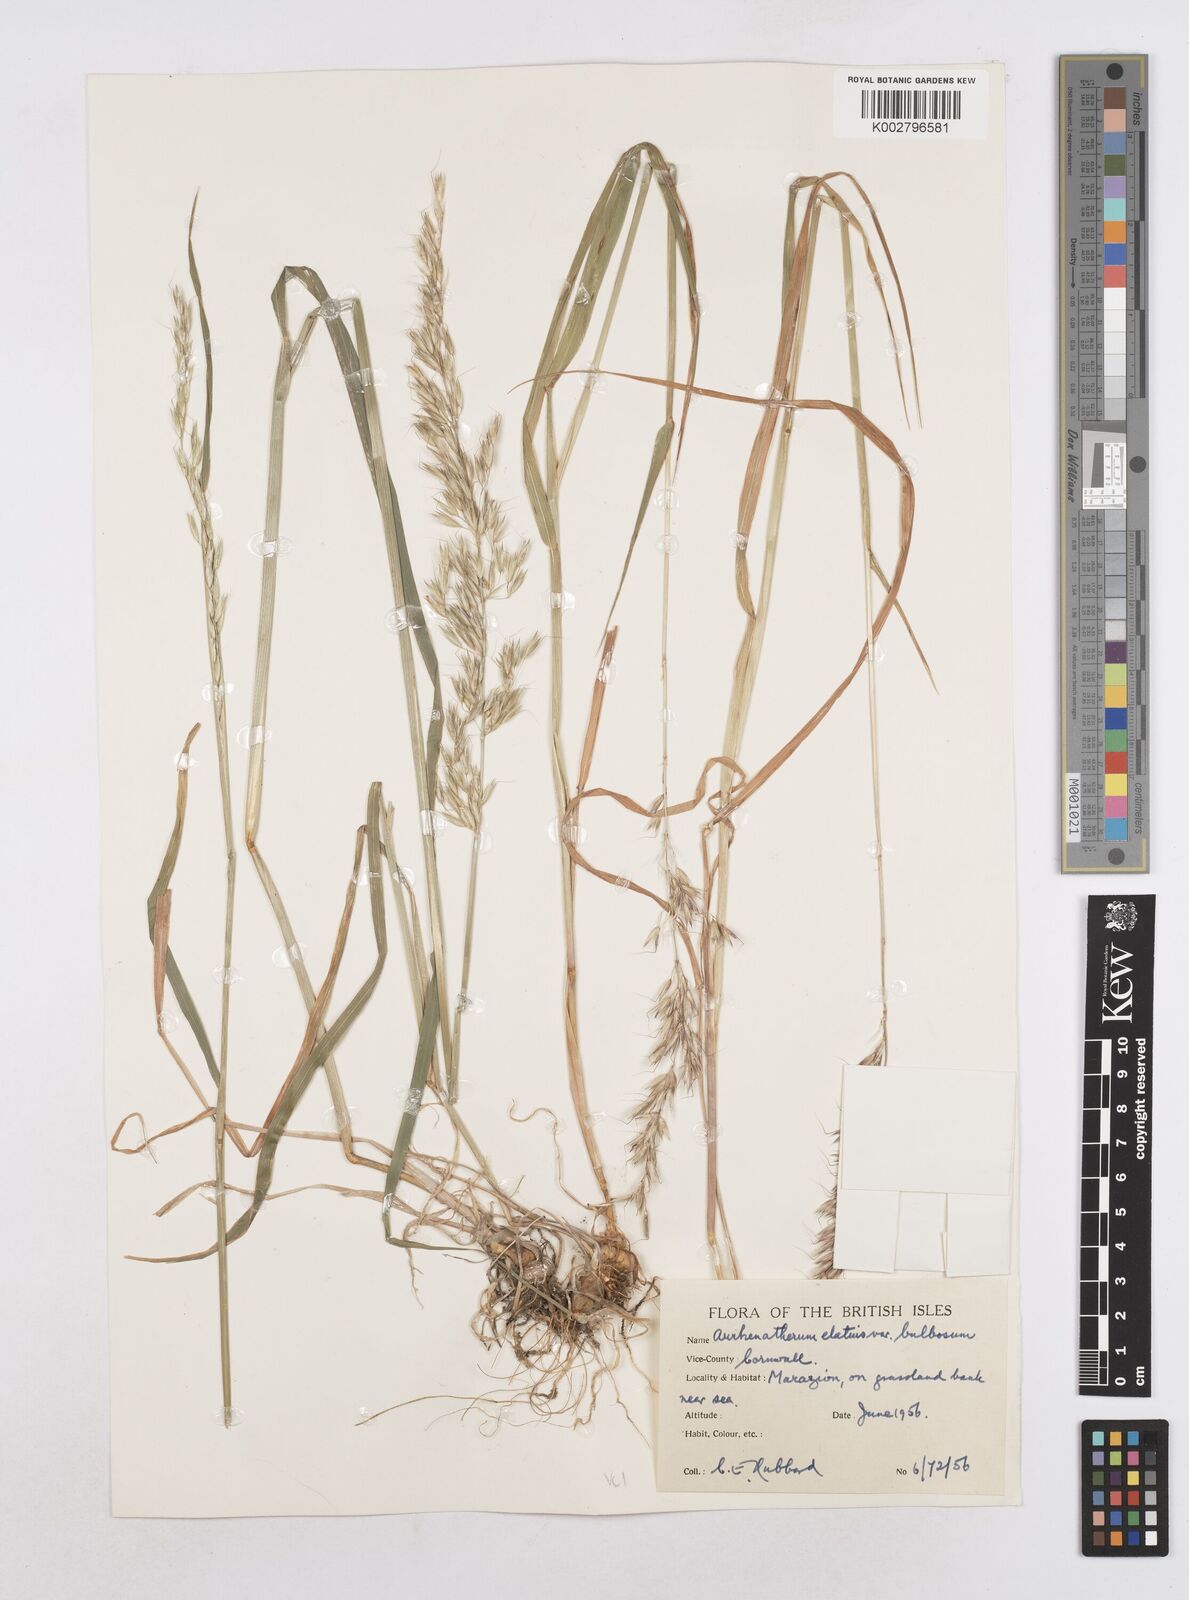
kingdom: Plantae
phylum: Tracheophyta
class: Liliopsida
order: Poales
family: Poaceae
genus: Arrhenatherum
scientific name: Arrhenatherum elatius
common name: Tall oatgrass
